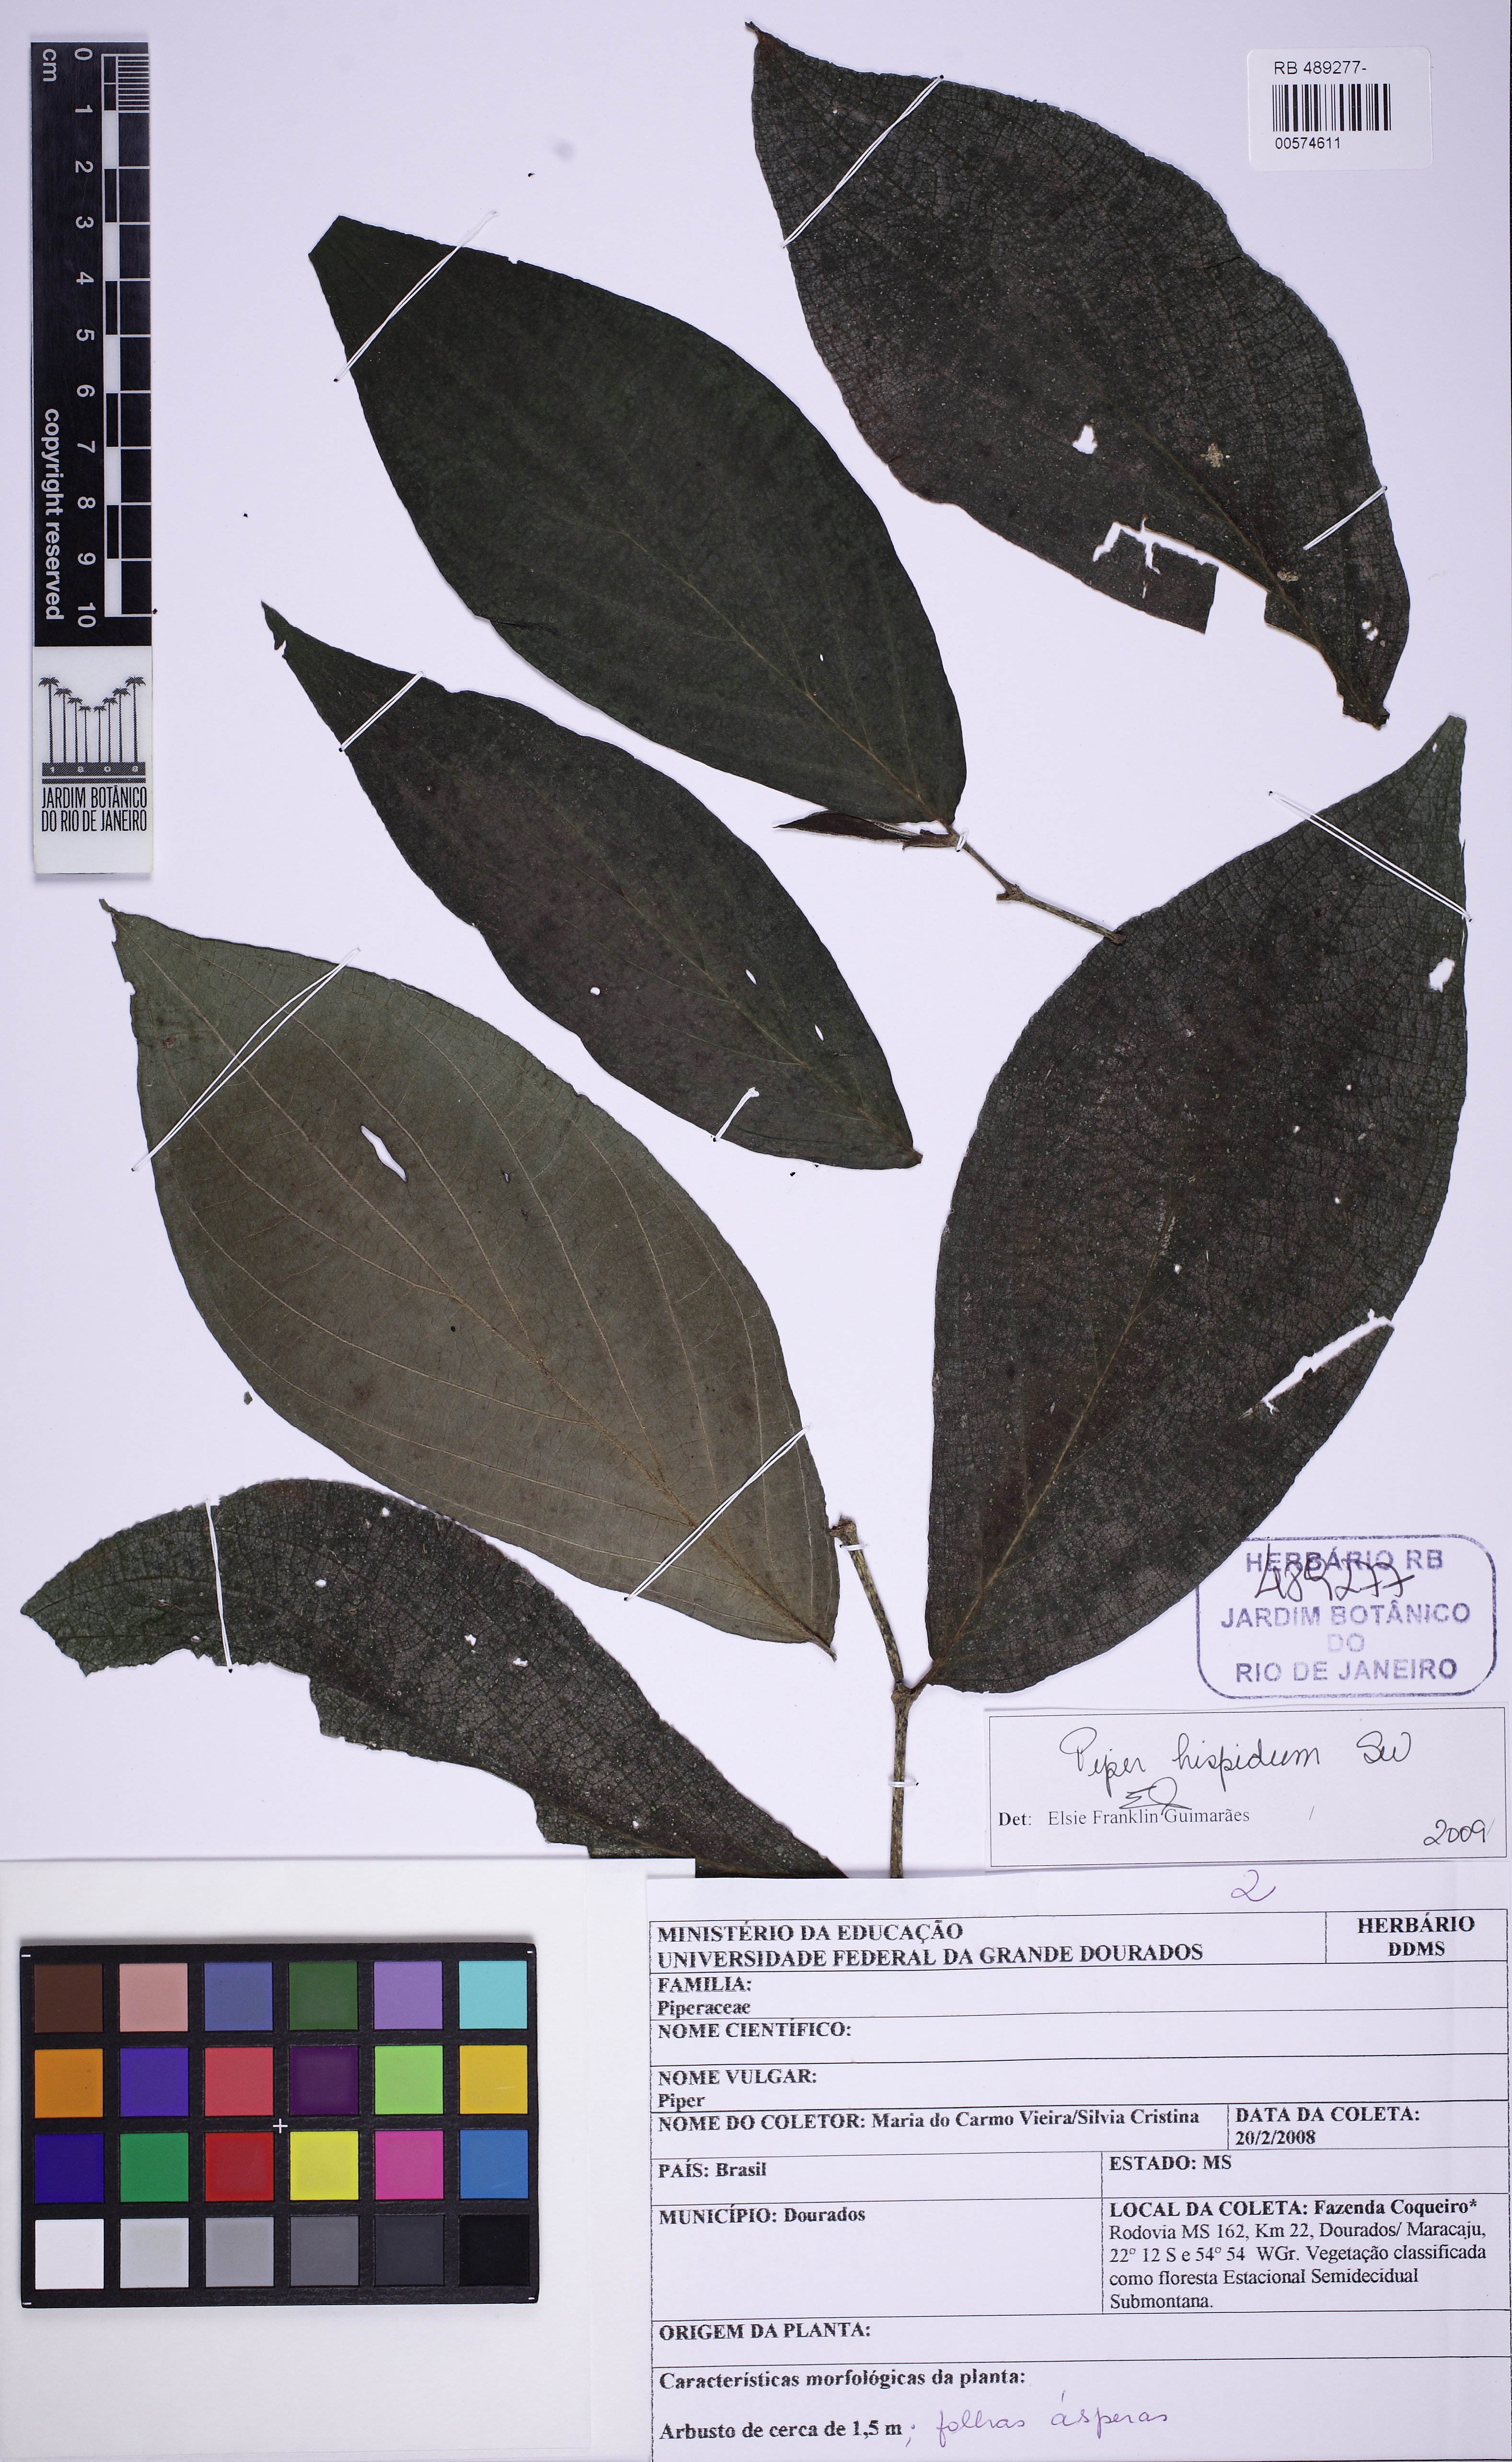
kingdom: Plantae
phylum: Tracheophyta
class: Magnoliopsida
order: Piperales
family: Piperaceae
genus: Piper
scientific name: Piper hispidum
